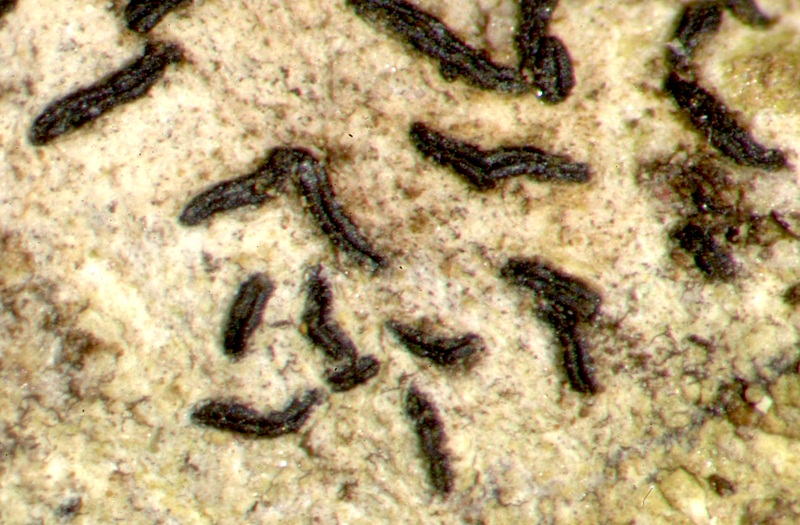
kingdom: Fungi
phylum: Ascomycota
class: Lecanoromycetes
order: Caliciales
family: Caliciaceae
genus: Buellia
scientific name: Buellia
